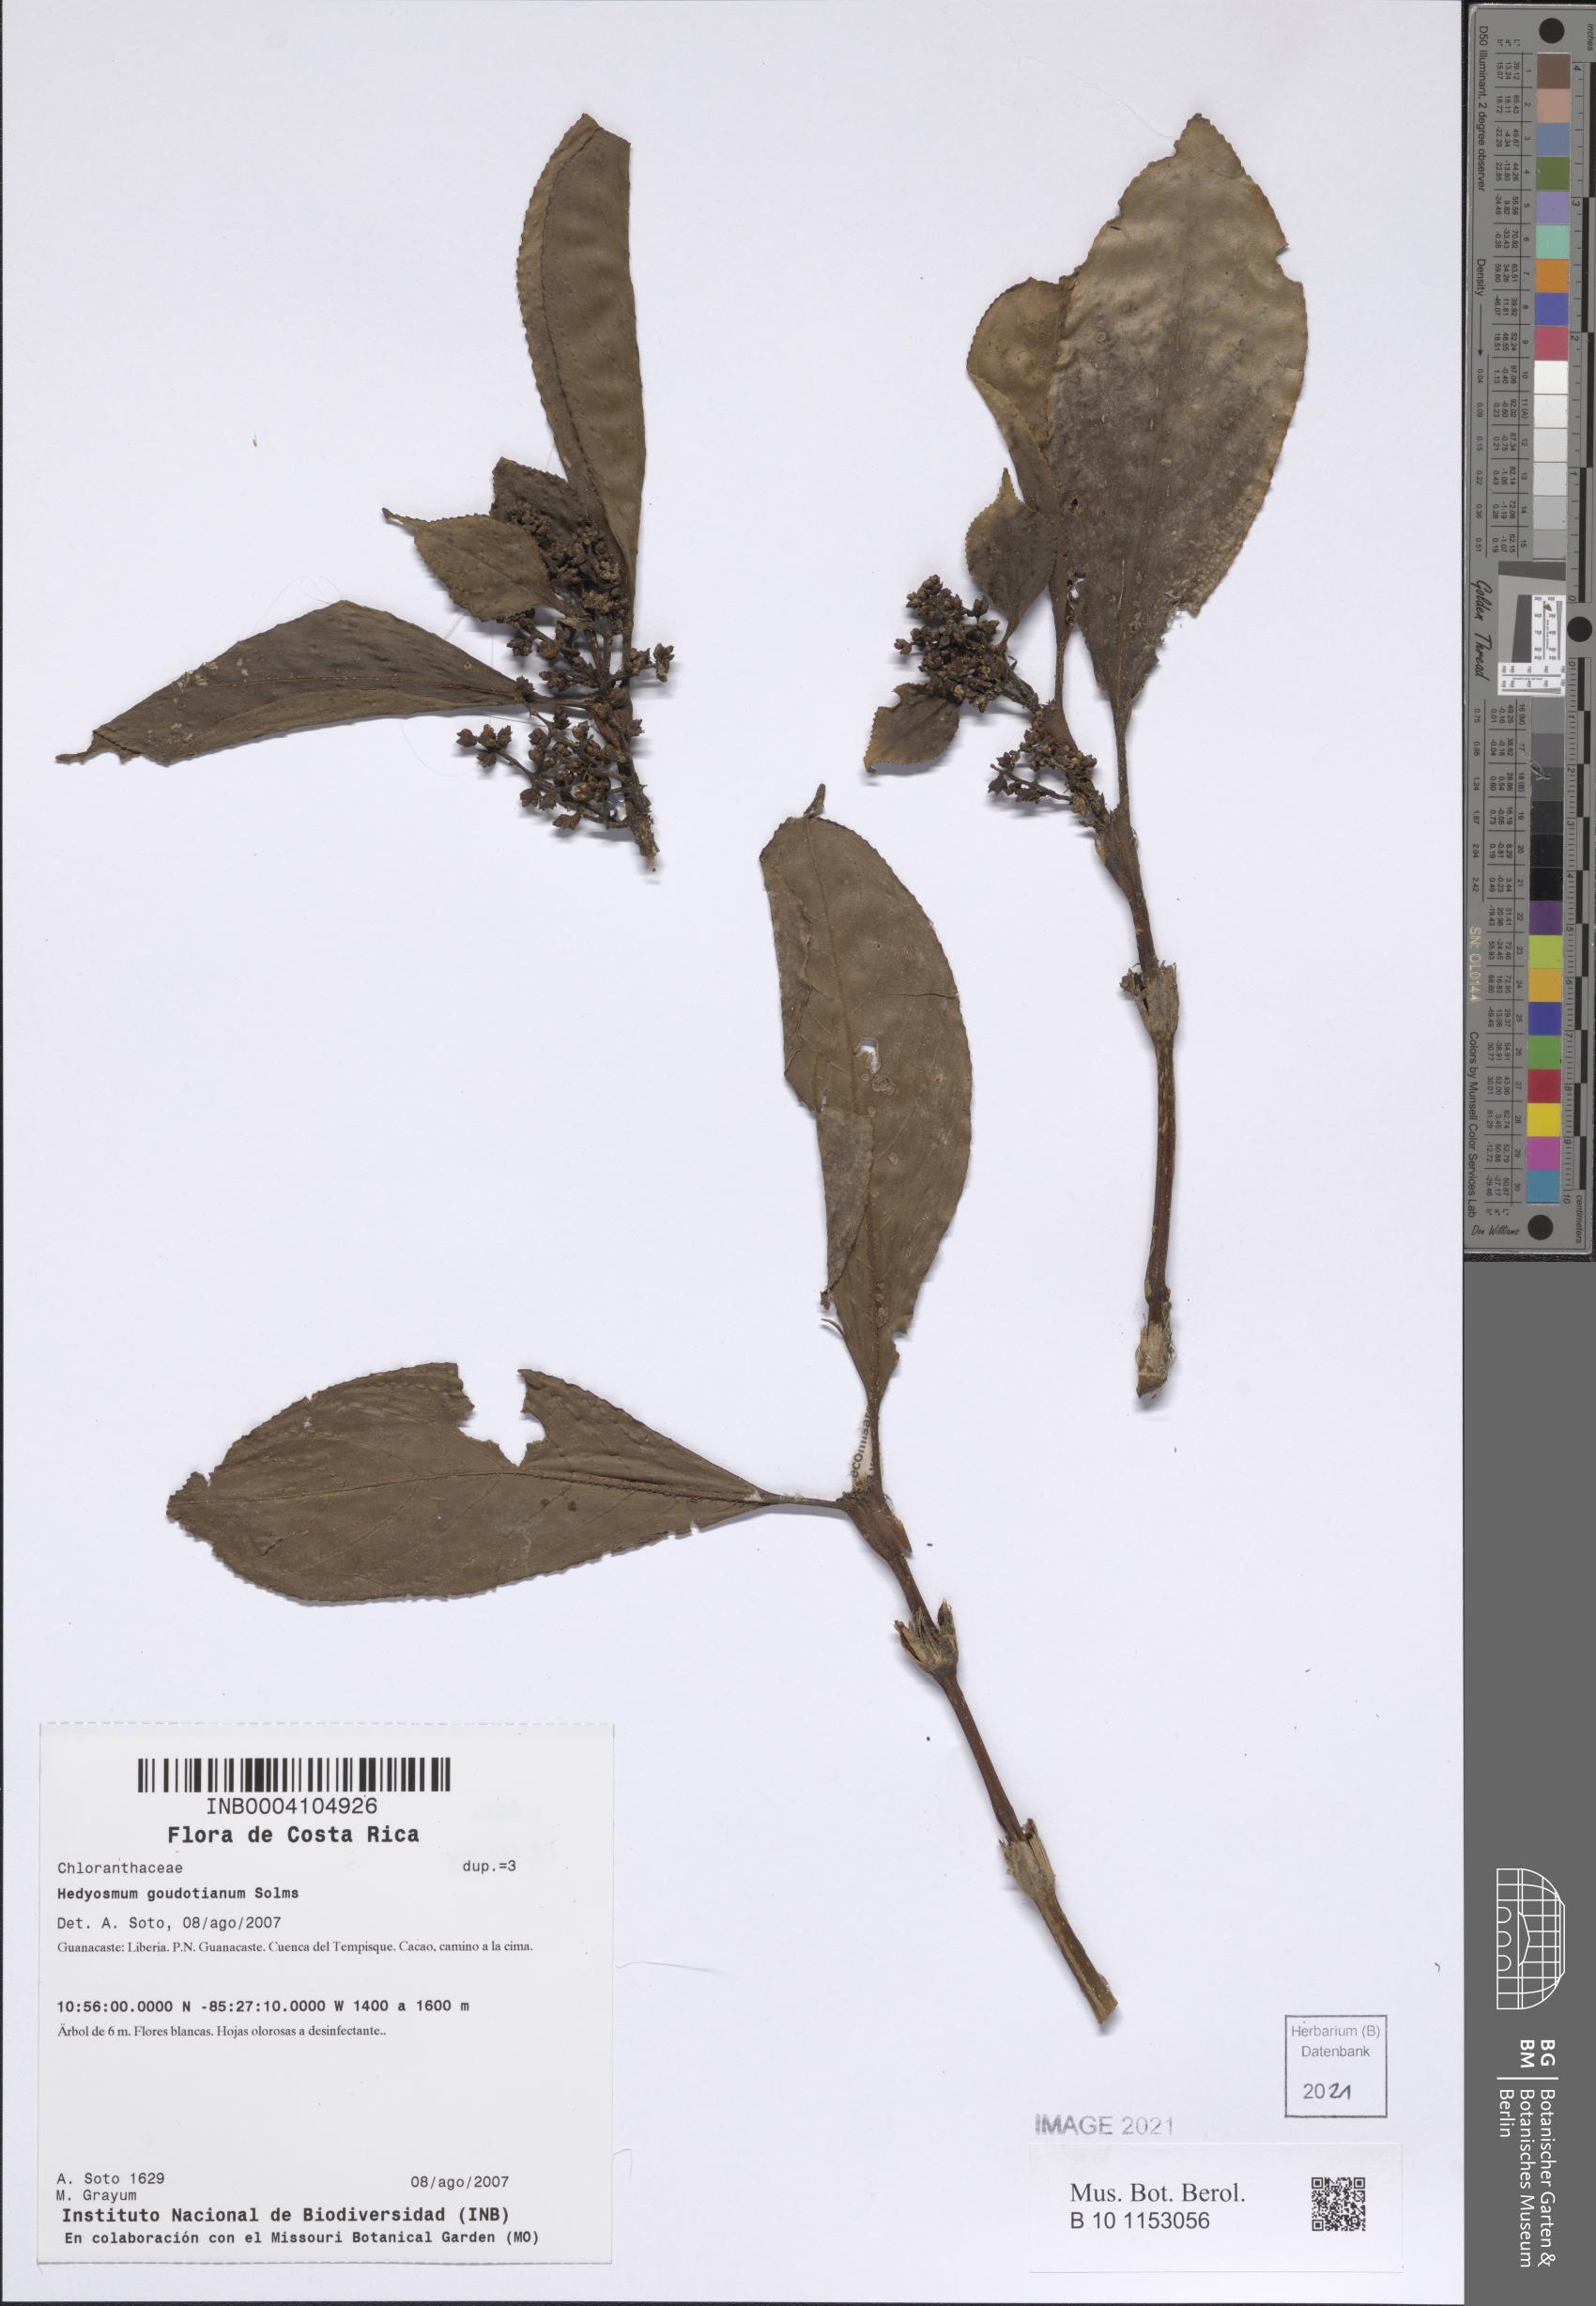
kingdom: Plantae
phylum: Tracheophyta
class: Magnoliopsida
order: Chloranthales
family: Chloranthaceae
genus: Hedyosmum
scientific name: Hedyosmum goudotianum
